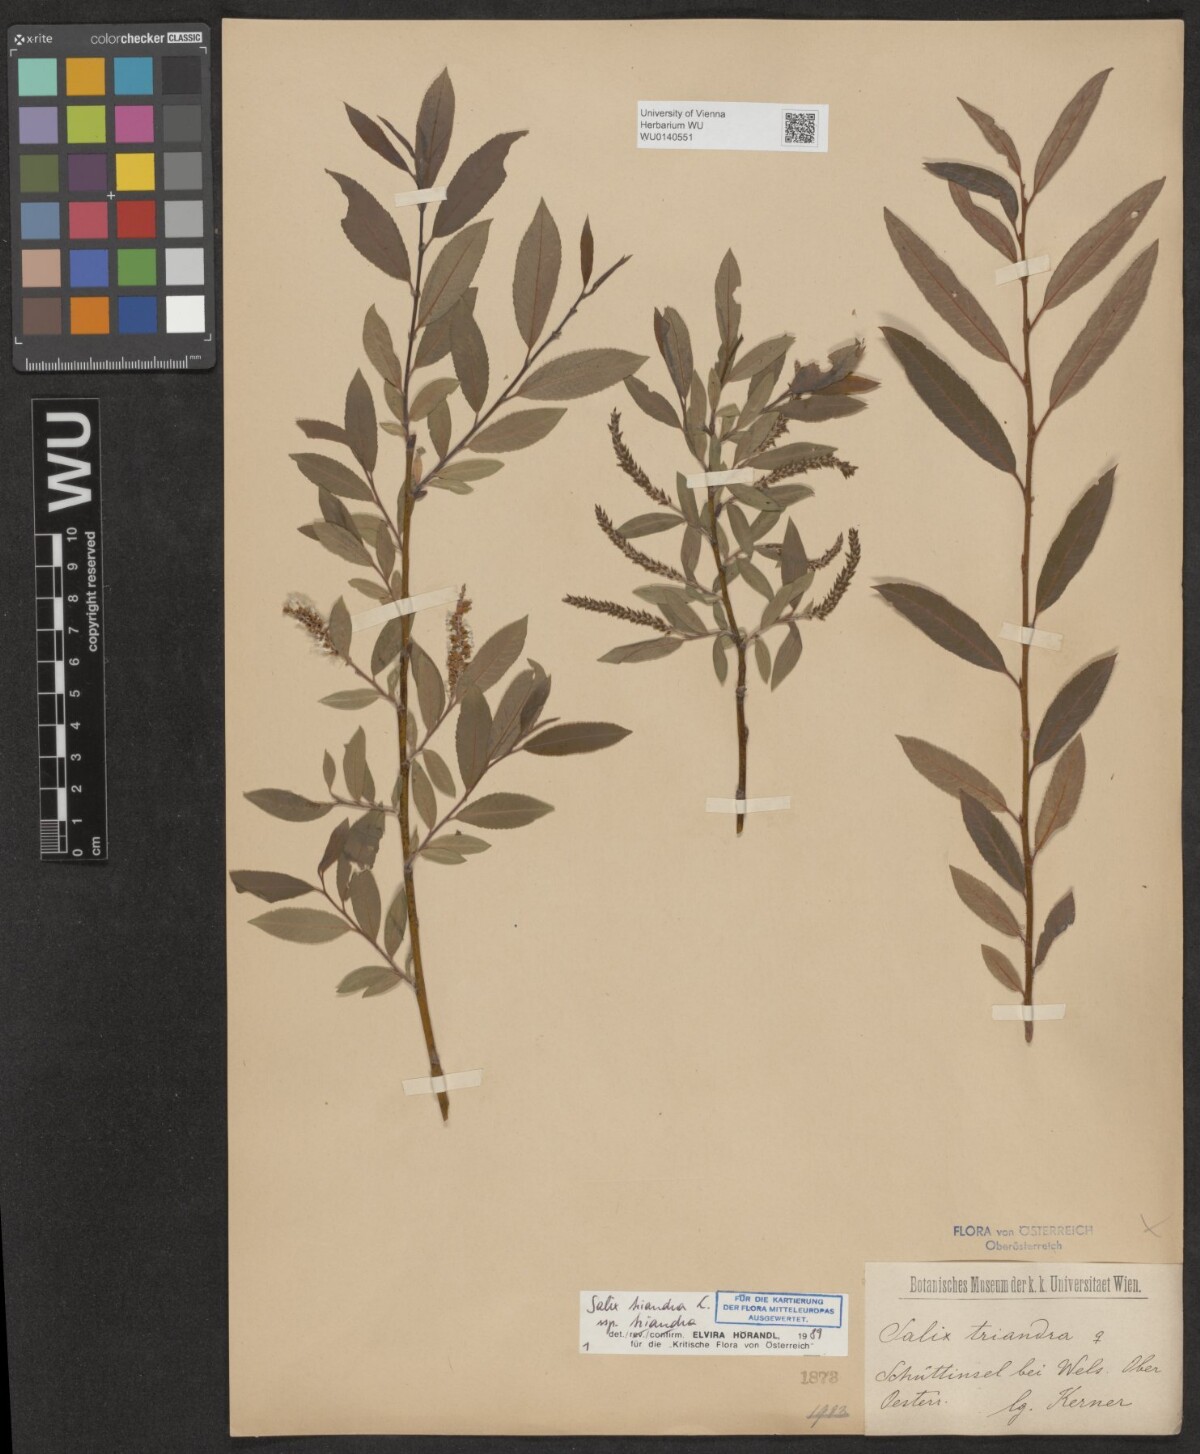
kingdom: Plantae
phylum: Tracheophyta
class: Magnoliopsida
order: Malpighiales
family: Salicaceae
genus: Salix
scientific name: Salix triandra
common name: Almond willow
